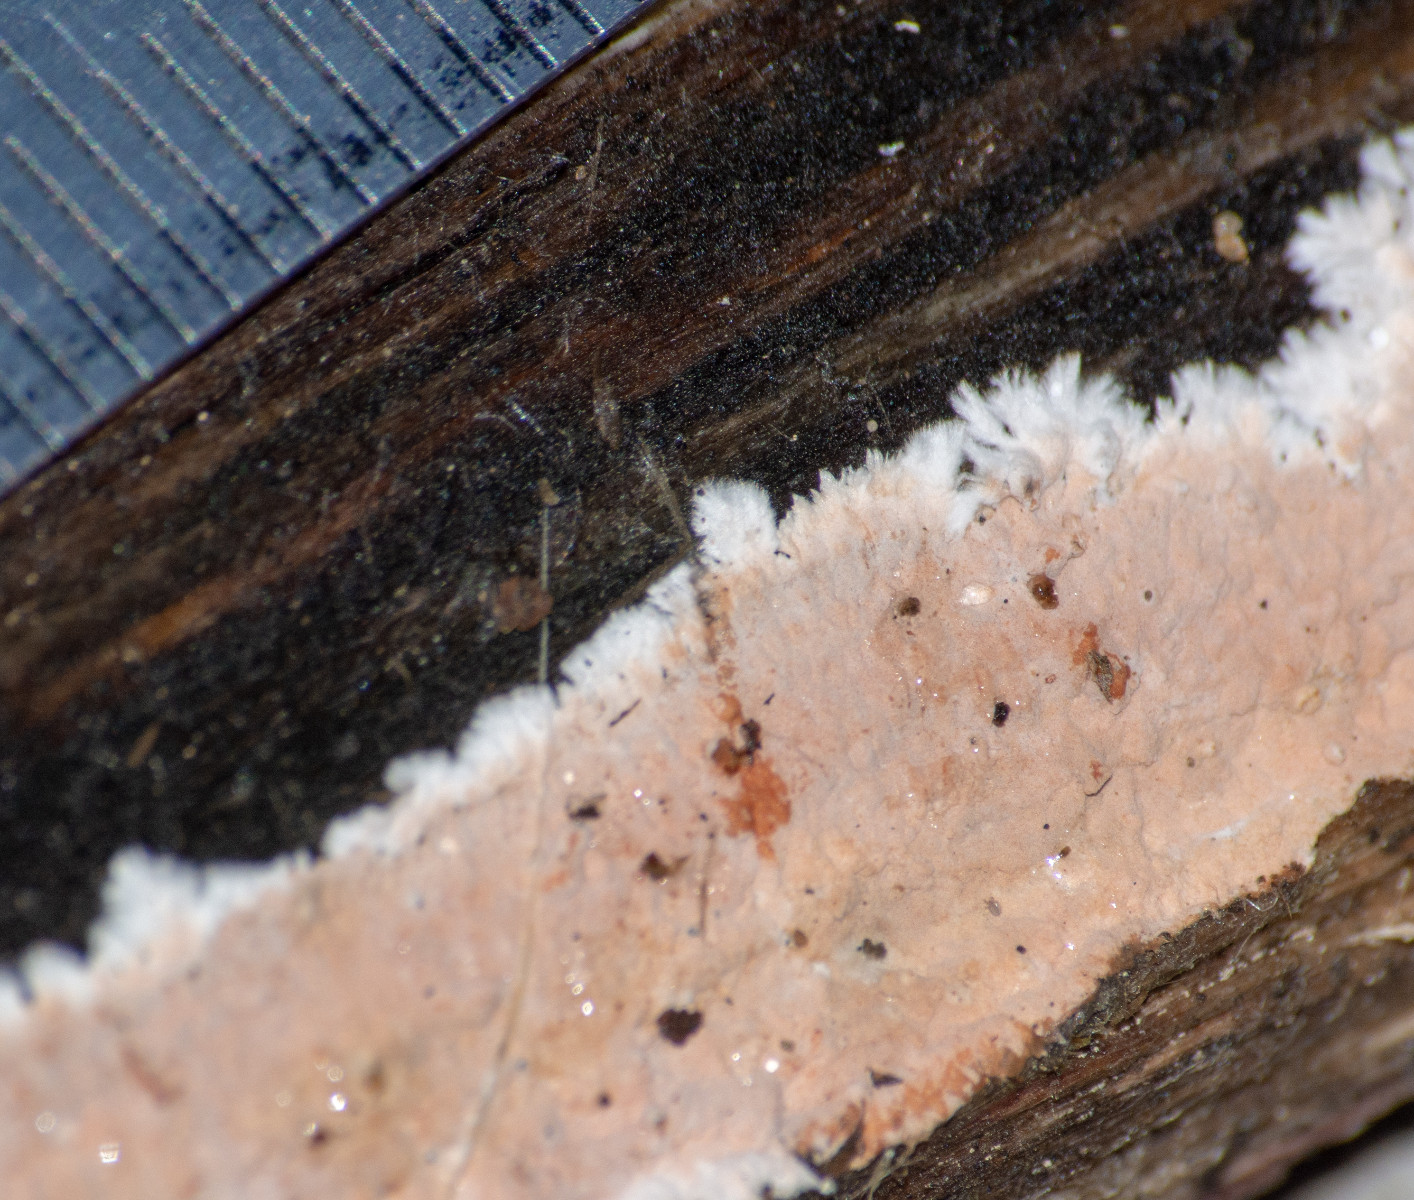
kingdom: Fungi
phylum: Basidiomycota
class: Agaricomycetes
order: Corticiales
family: Corticiaceae
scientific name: Corticiaceae
